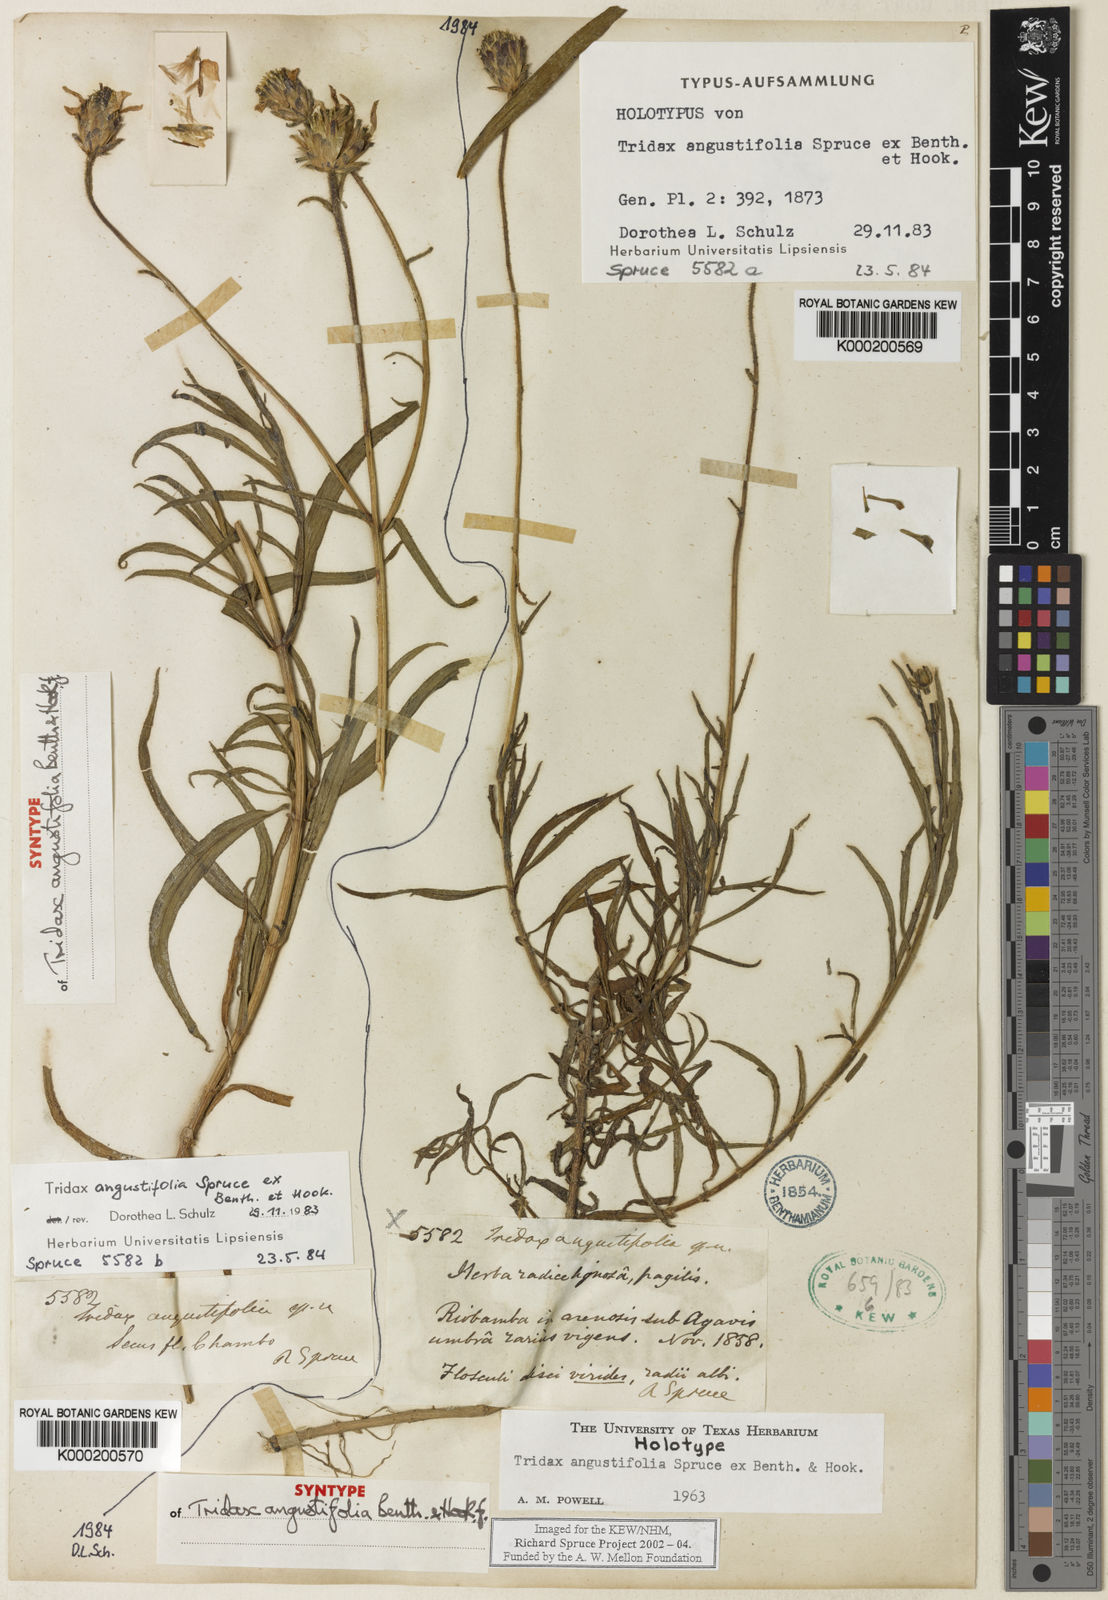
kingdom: Plantae
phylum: Tracheophyta
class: Magnoliopsida
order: Asterales
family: Asteraceae
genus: Tridax
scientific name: Tridax angustifolia
